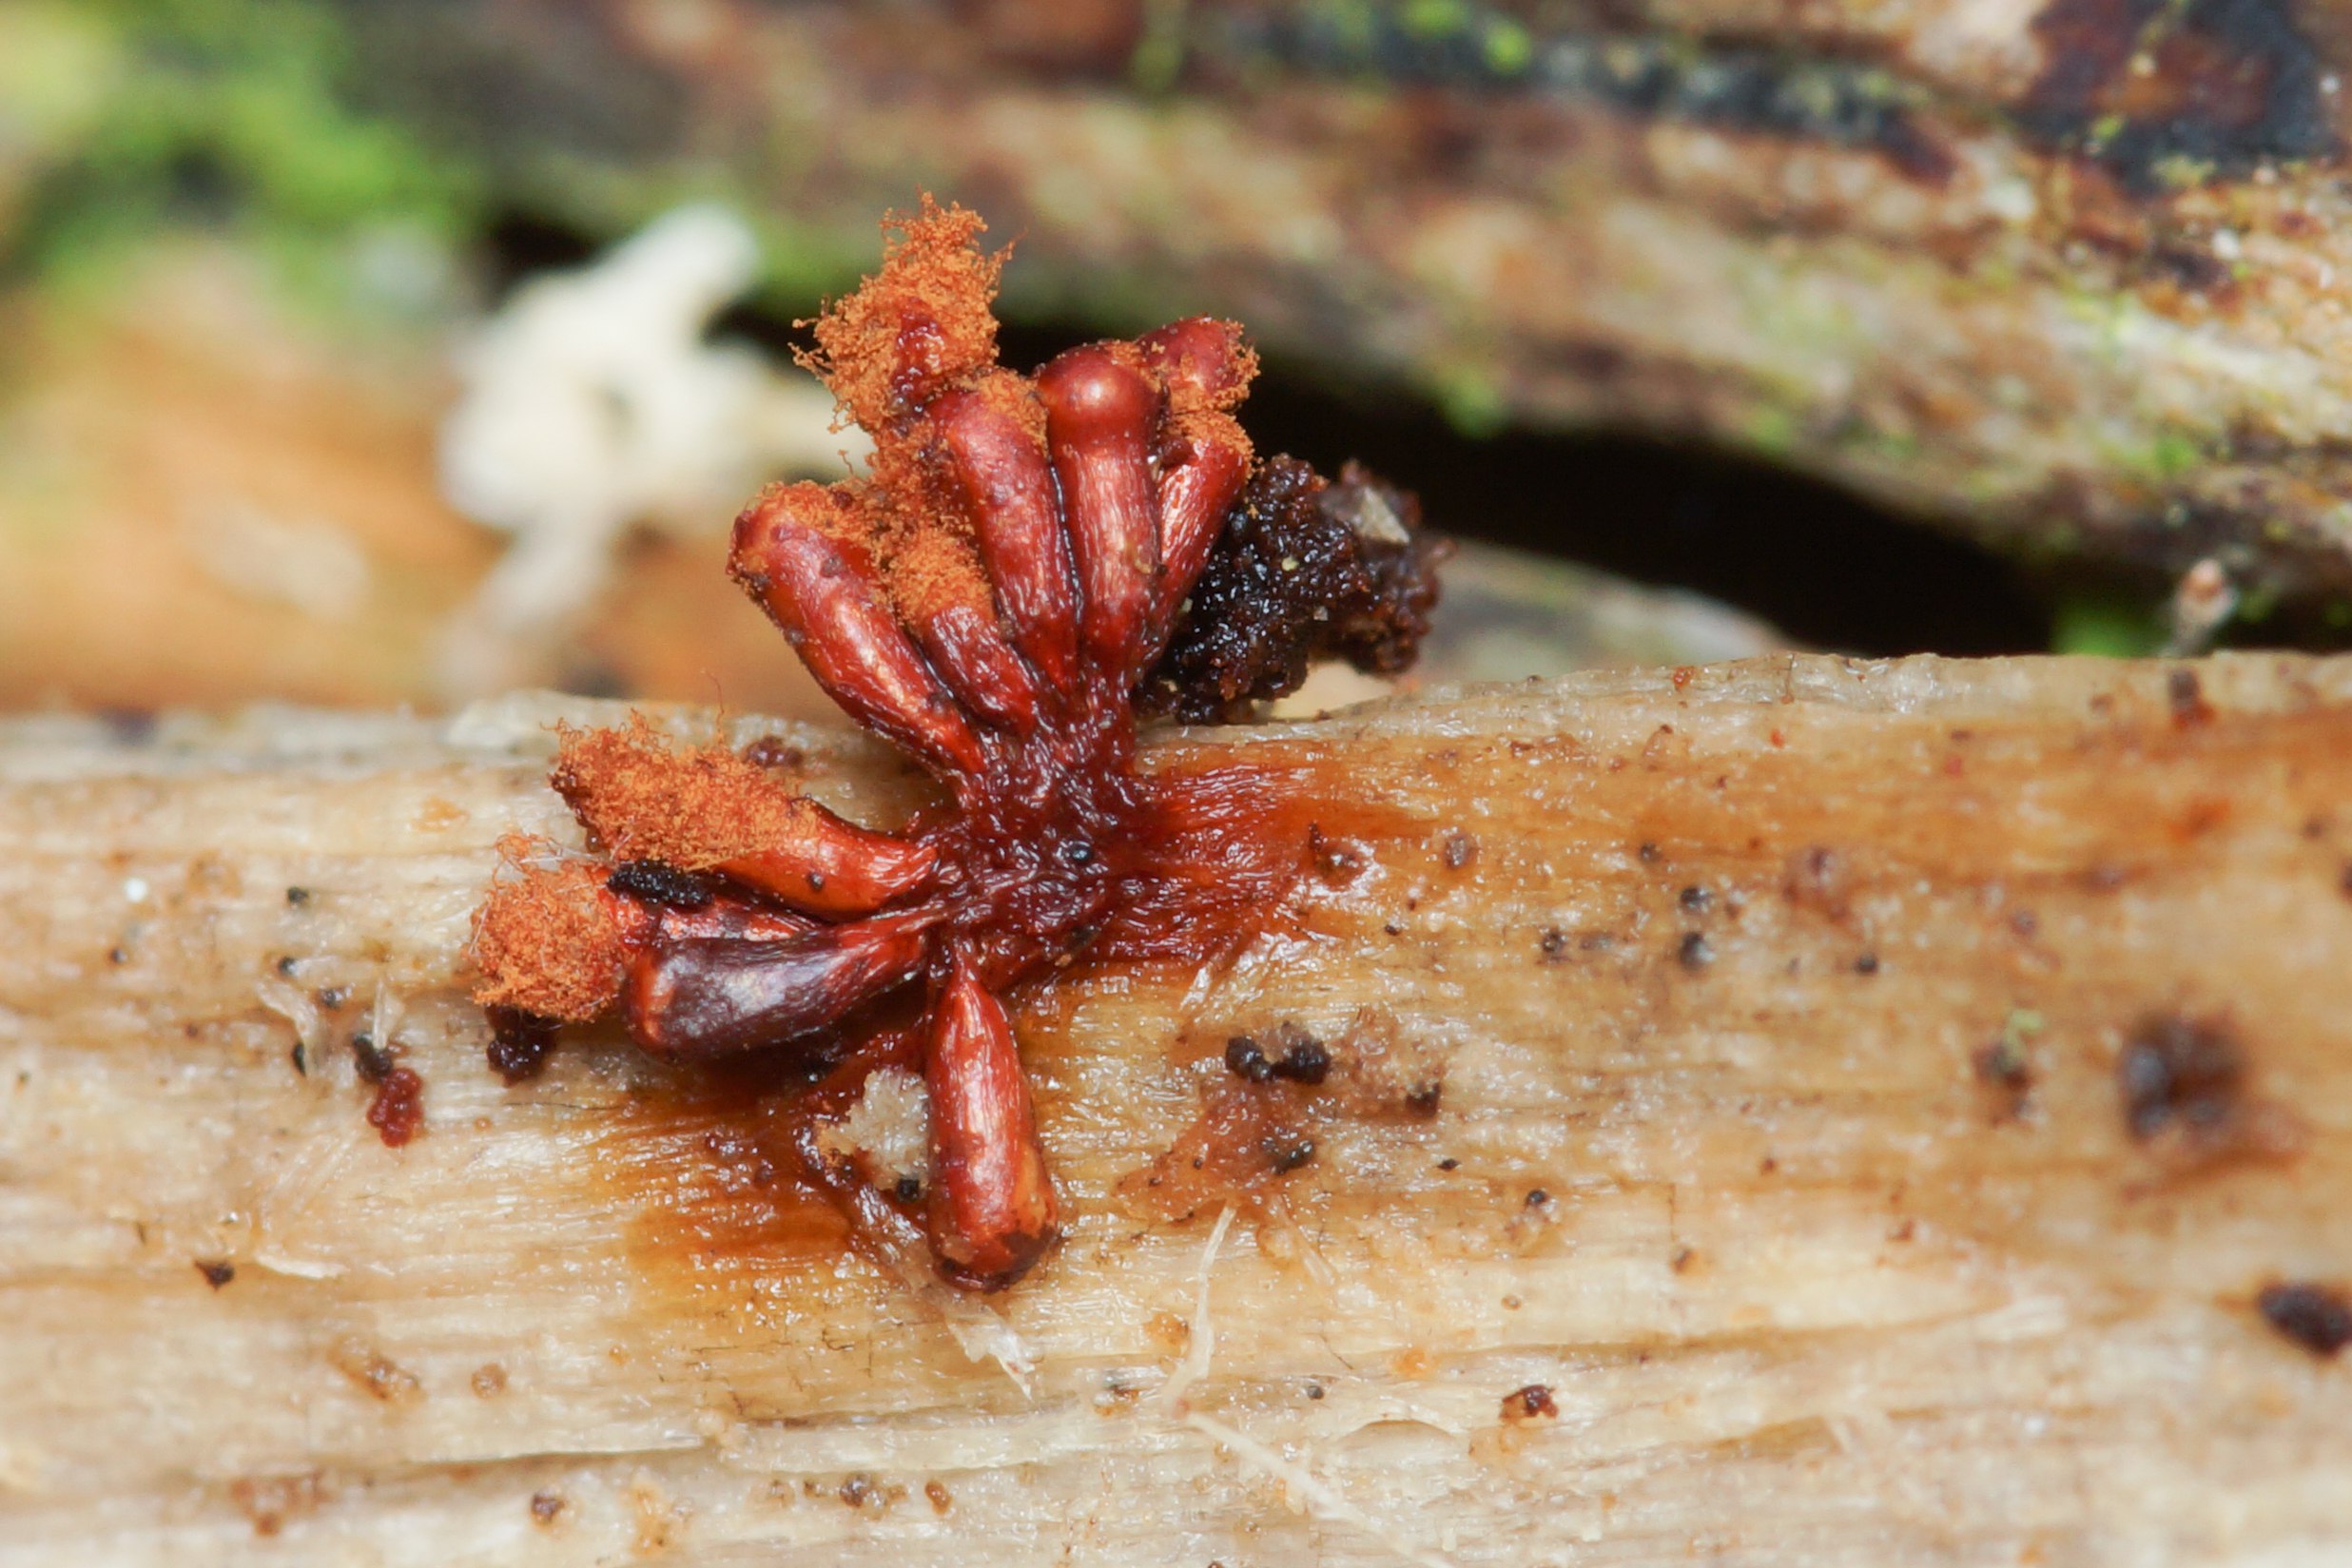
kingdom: Protozoa
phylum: Mycetozoa
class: Myxomycetes
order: Trichiales
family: Trichiaceae
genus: Metatrichia
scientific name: Metatrichia vesparia
